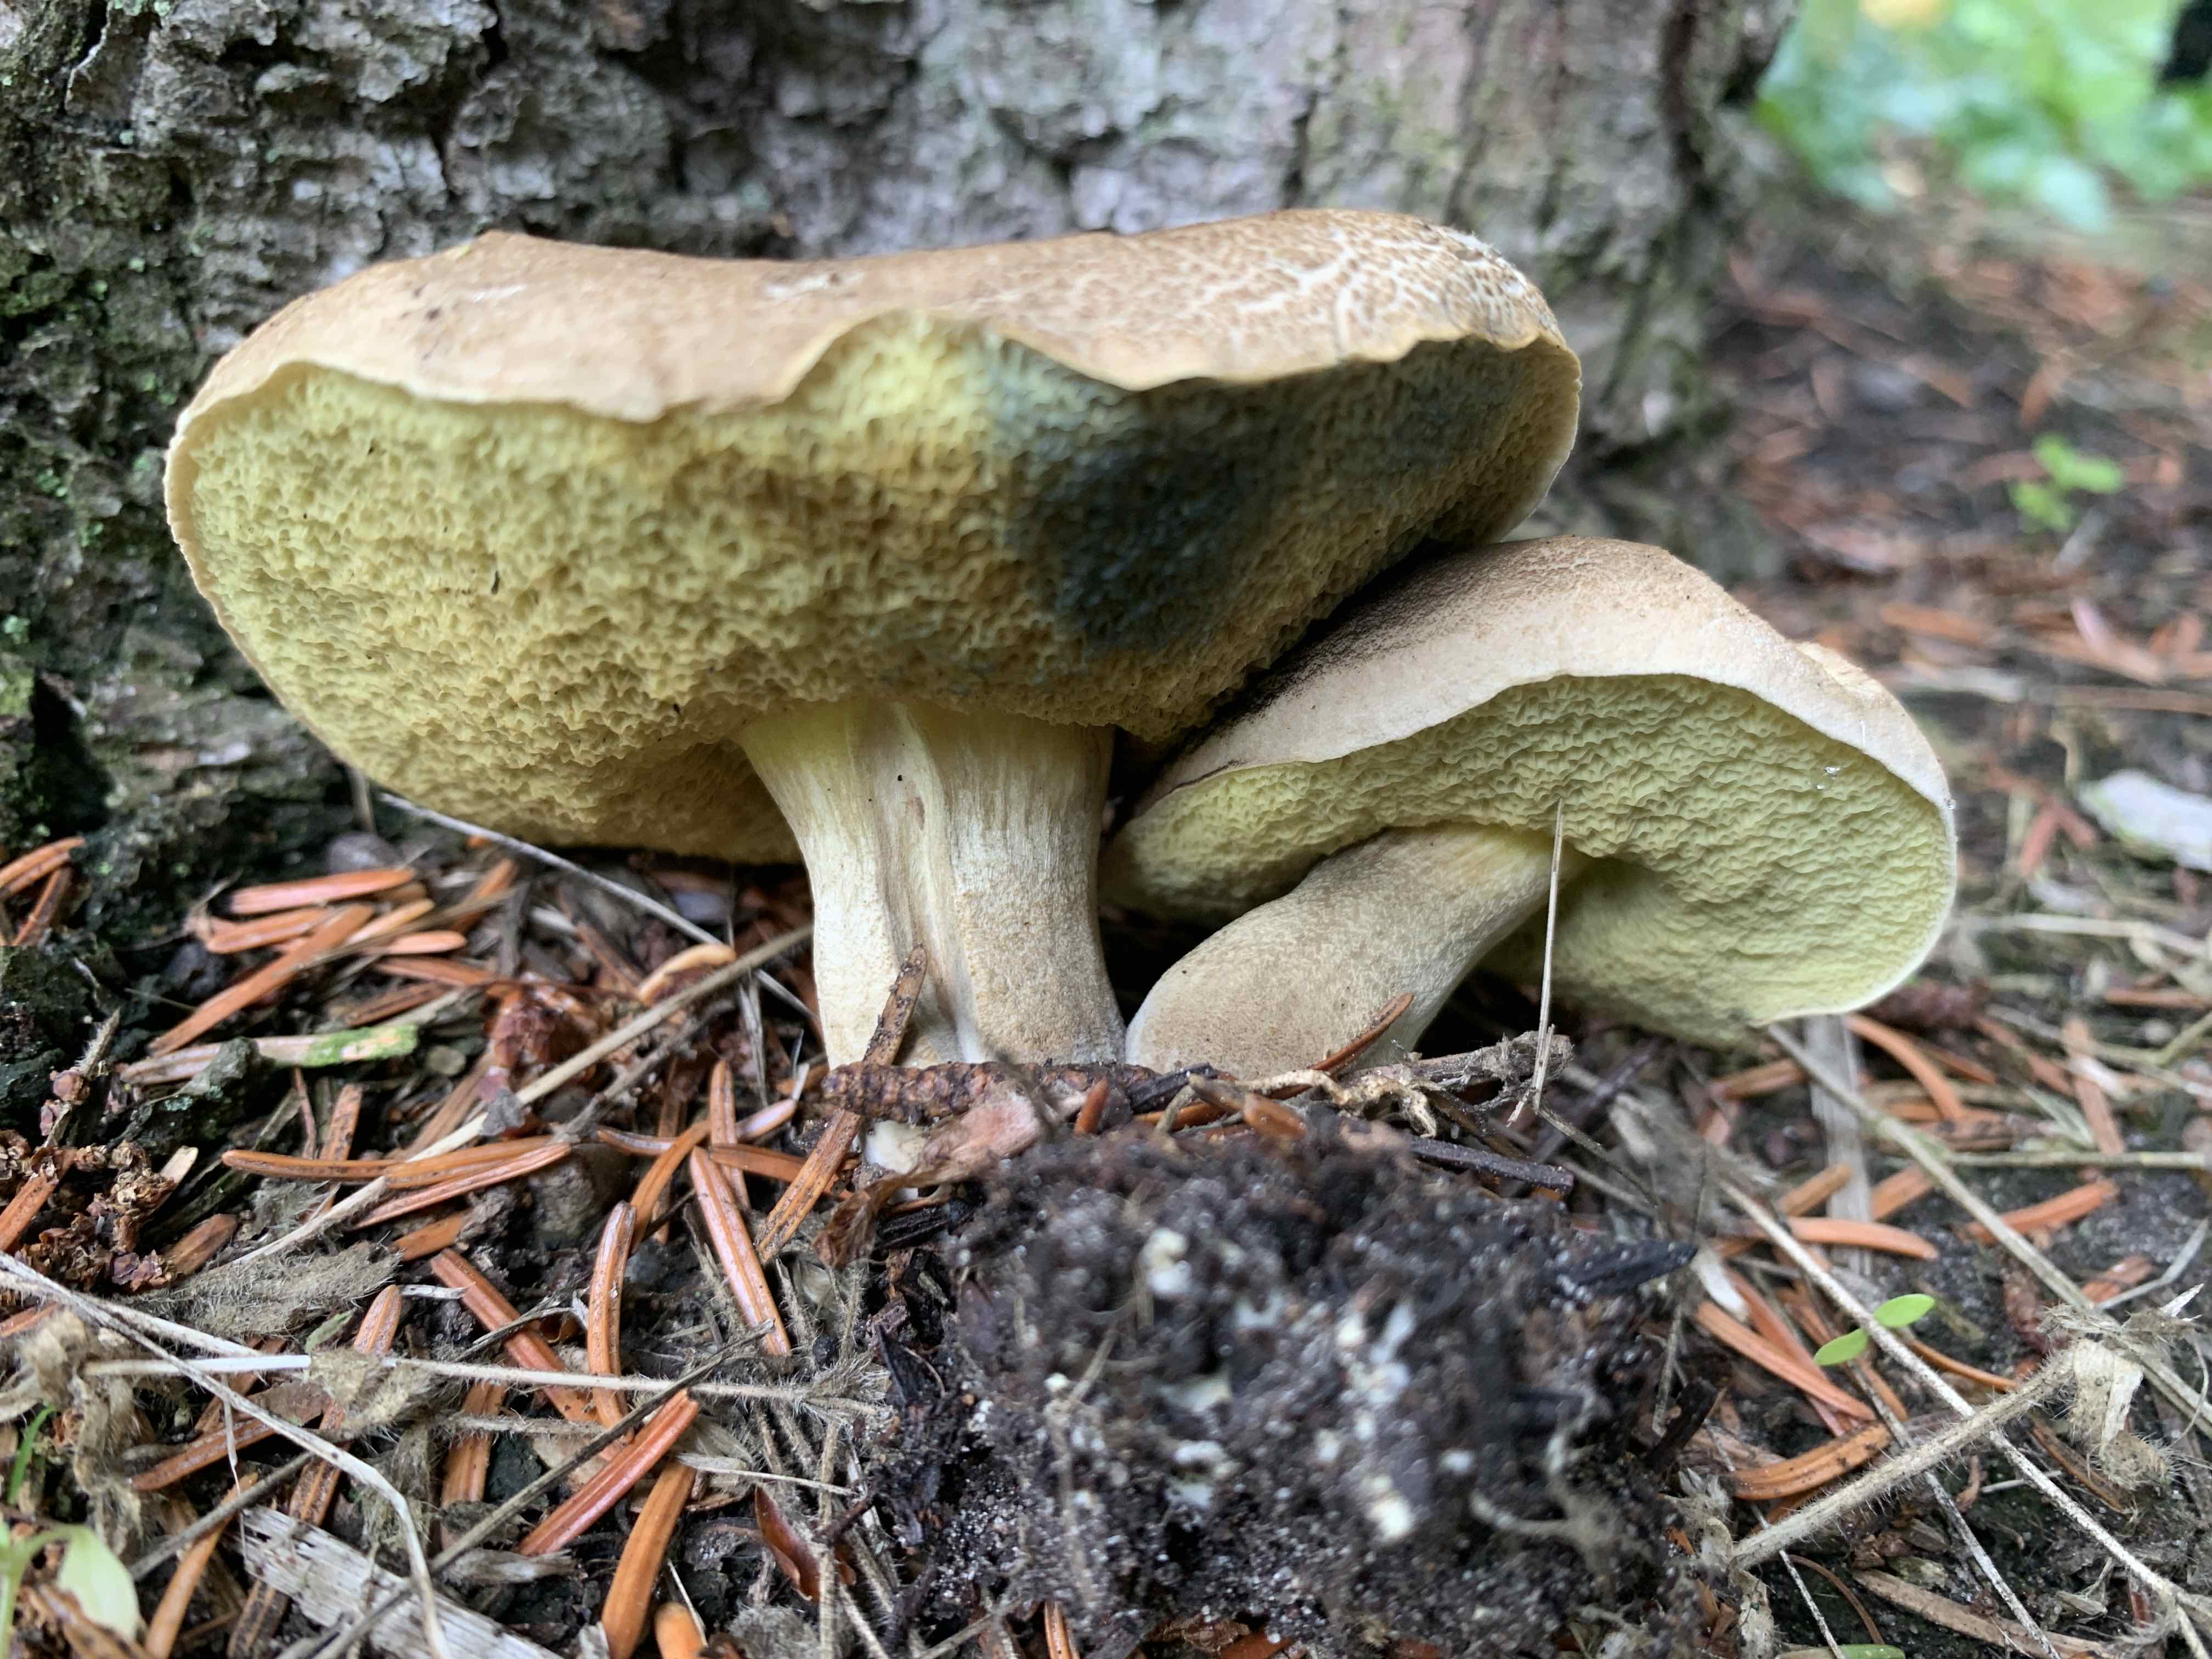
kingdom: Fungi
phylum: Basidiomycota
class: Agaricomycetes
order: Boletales
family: Boletaceae
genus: Xerocomellus
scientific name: Xerocomellus porosporus
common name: hvidsprukken rørhat
